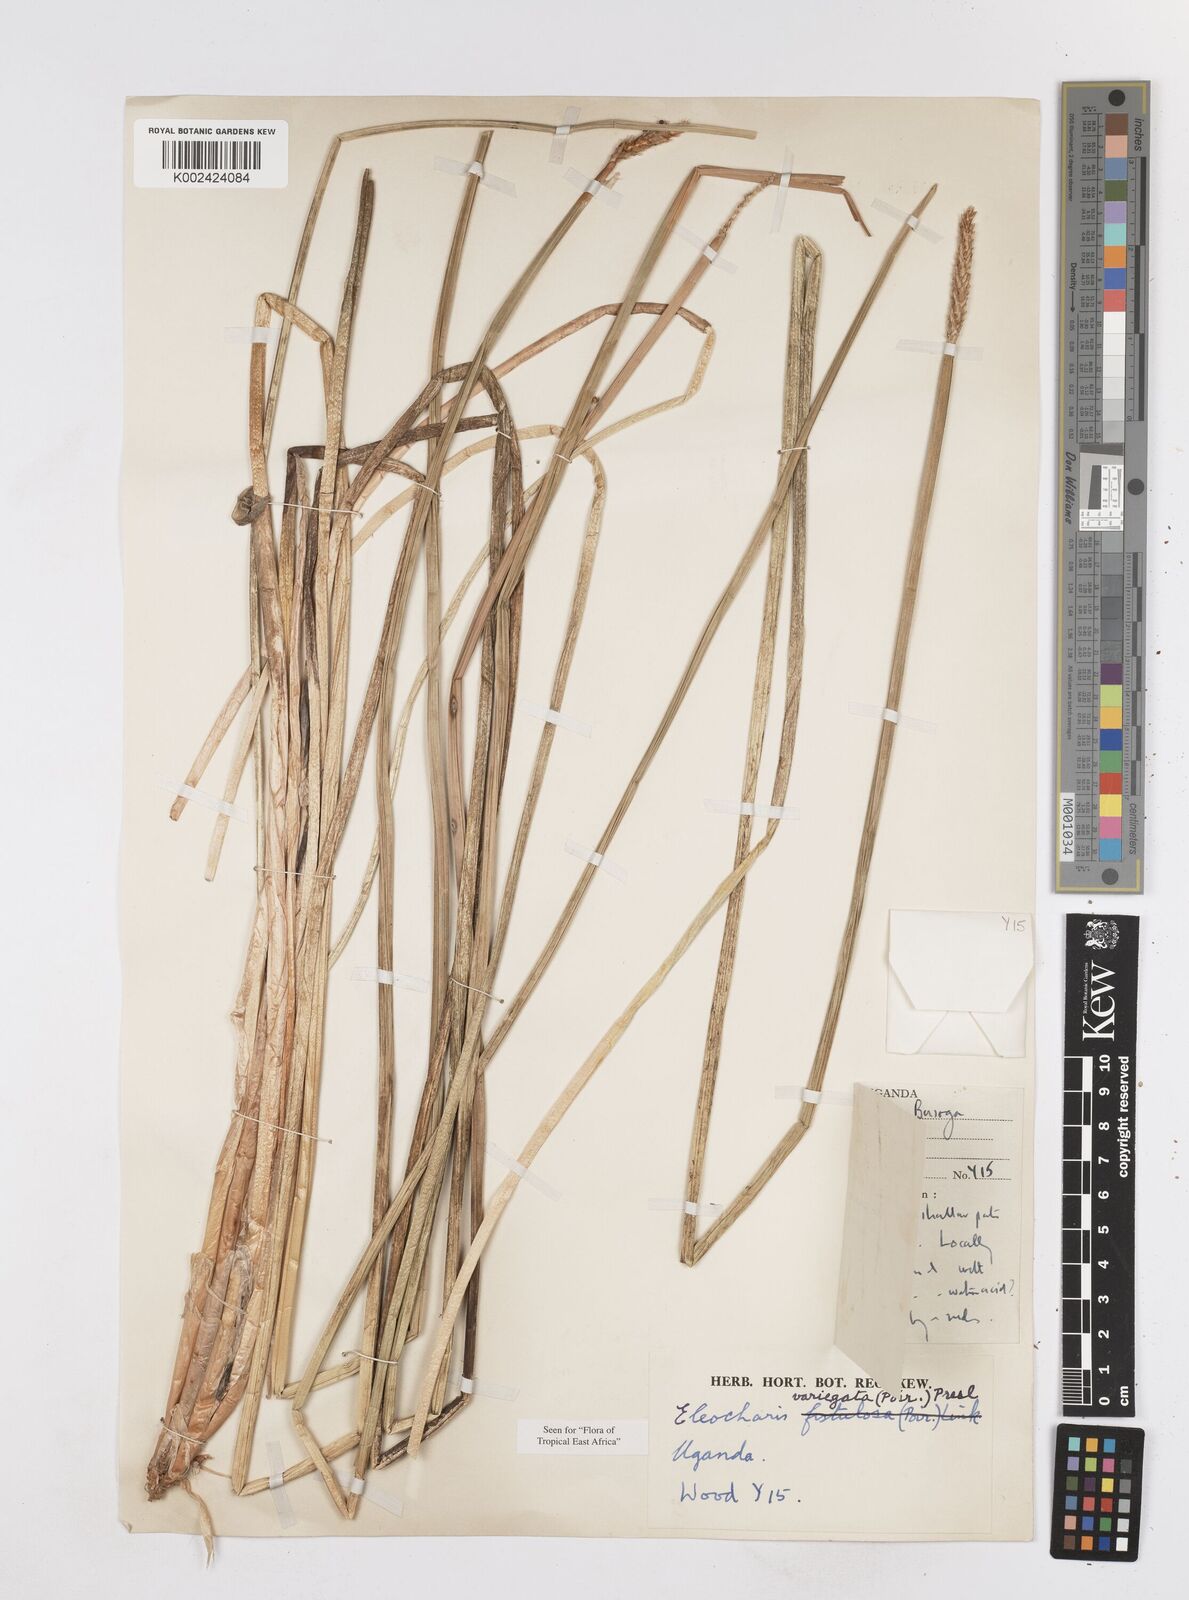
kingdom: Plantae
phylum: Tracheophyta
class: Liliopsida
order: Poales
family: Cyperaceae
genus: Eleocharis
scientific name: Eleocharis variegata
